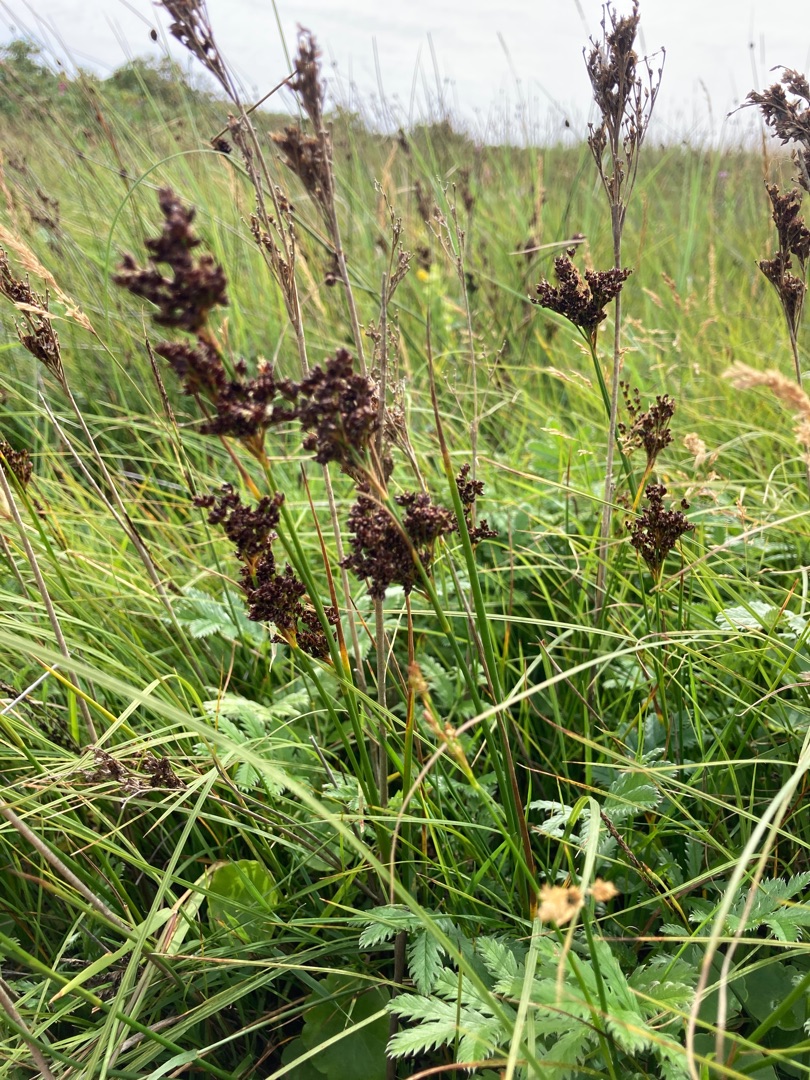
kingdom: Plantae
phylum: Tracheophyta
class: Liliopsida
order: Poales
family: Juncaceae
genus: Juncus
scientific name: Juncus anceps
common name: Sand-siv
